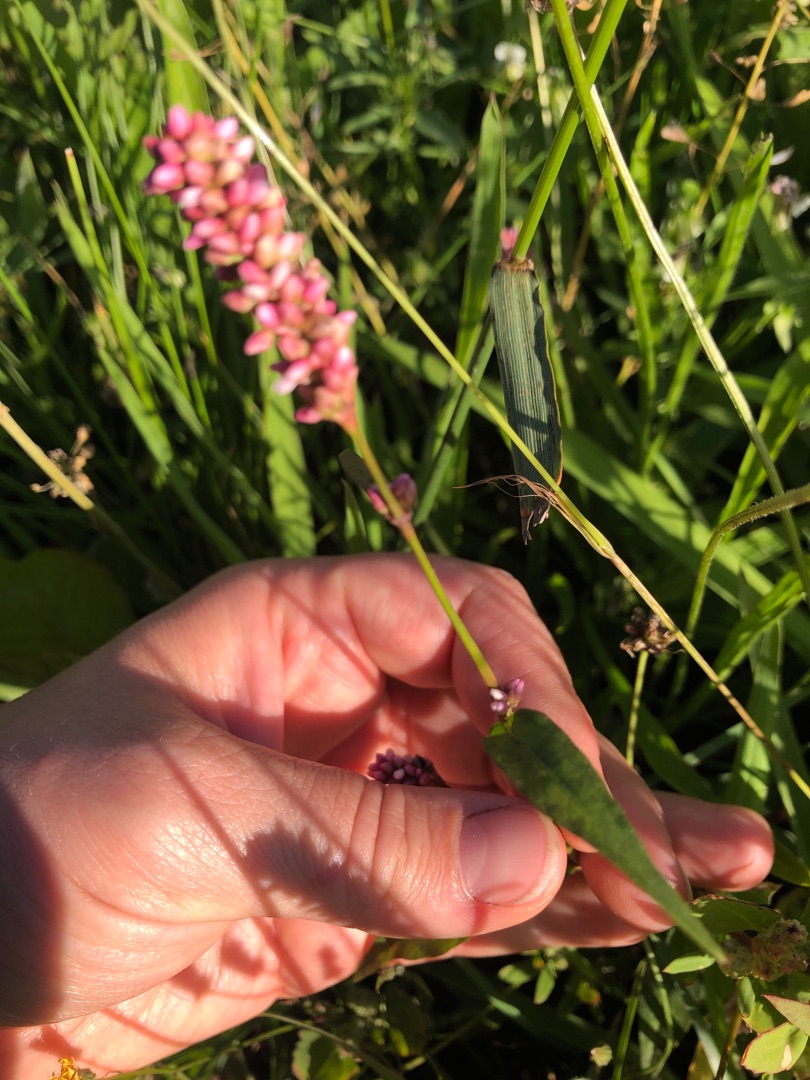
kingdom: Plantae
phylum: Tracheophyta
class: Magnoliopsida
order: Caryophyllales
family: Polygonaceae
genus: Persicaria
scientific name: Persicaria maculosa
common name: Fersken-pileurt
